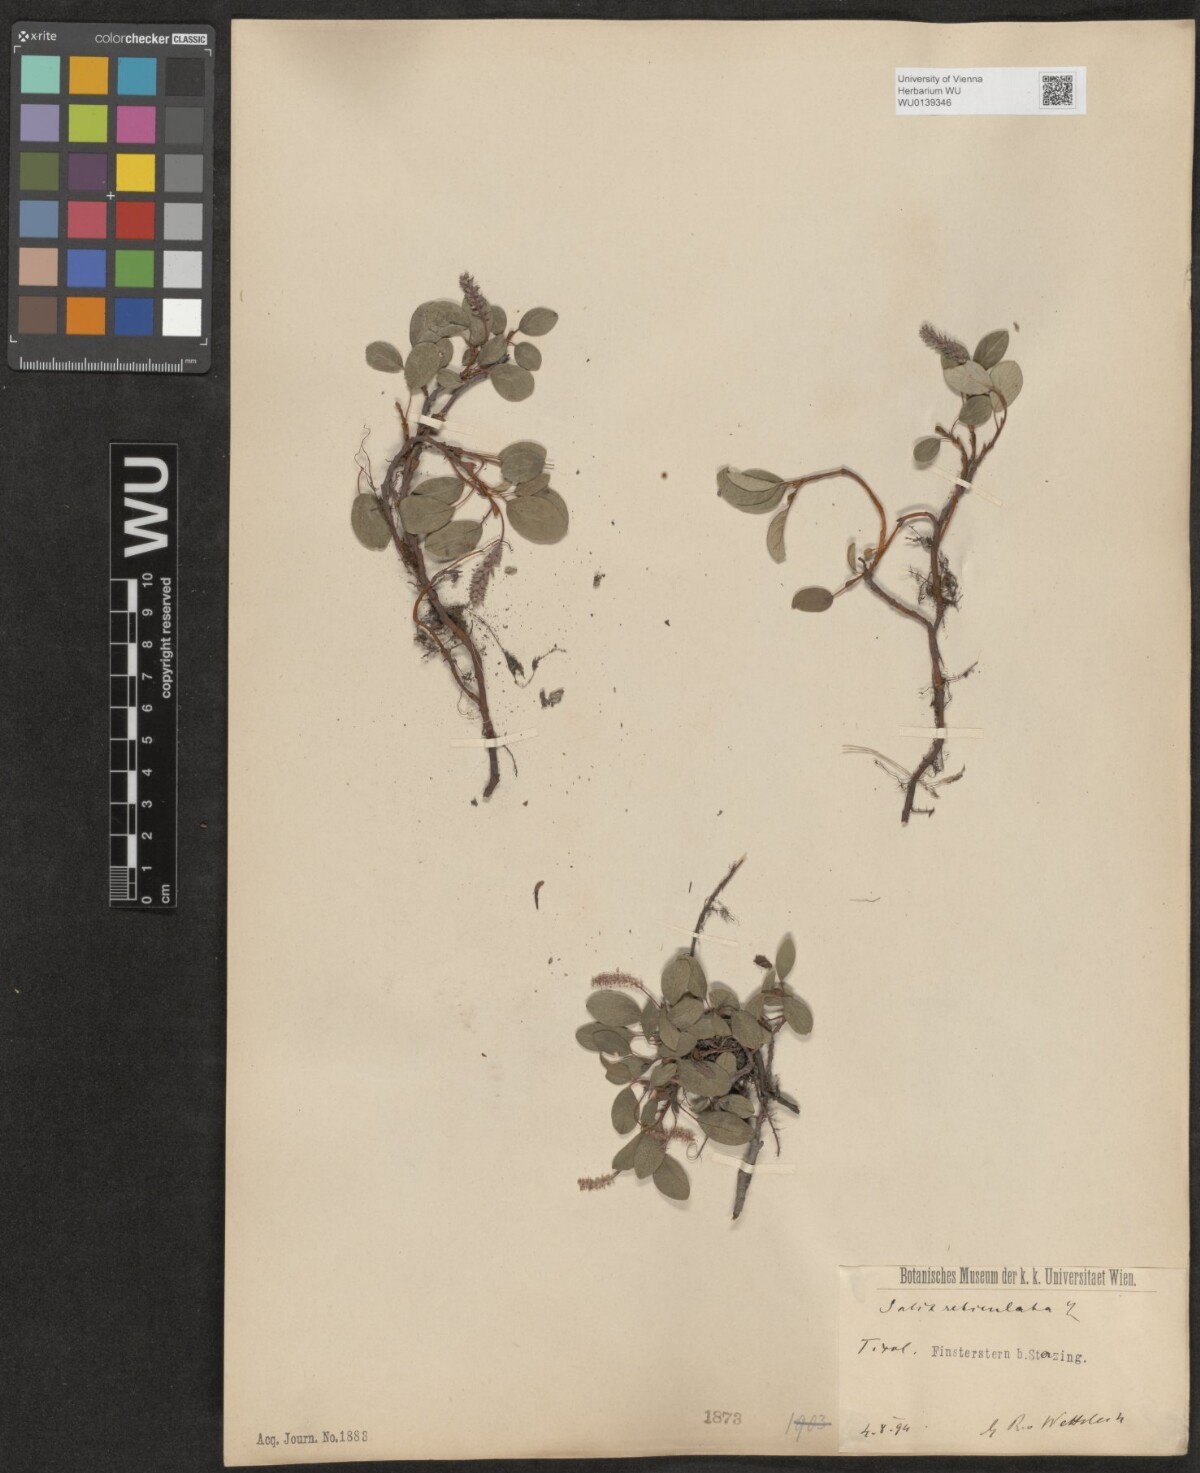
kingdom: Plantae
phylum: Tracheophyta
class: Magnoliopsida
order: Malpighiales
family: Salicaceae
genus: Salix
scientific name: Salix reticulata
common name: Net-leaved willow
